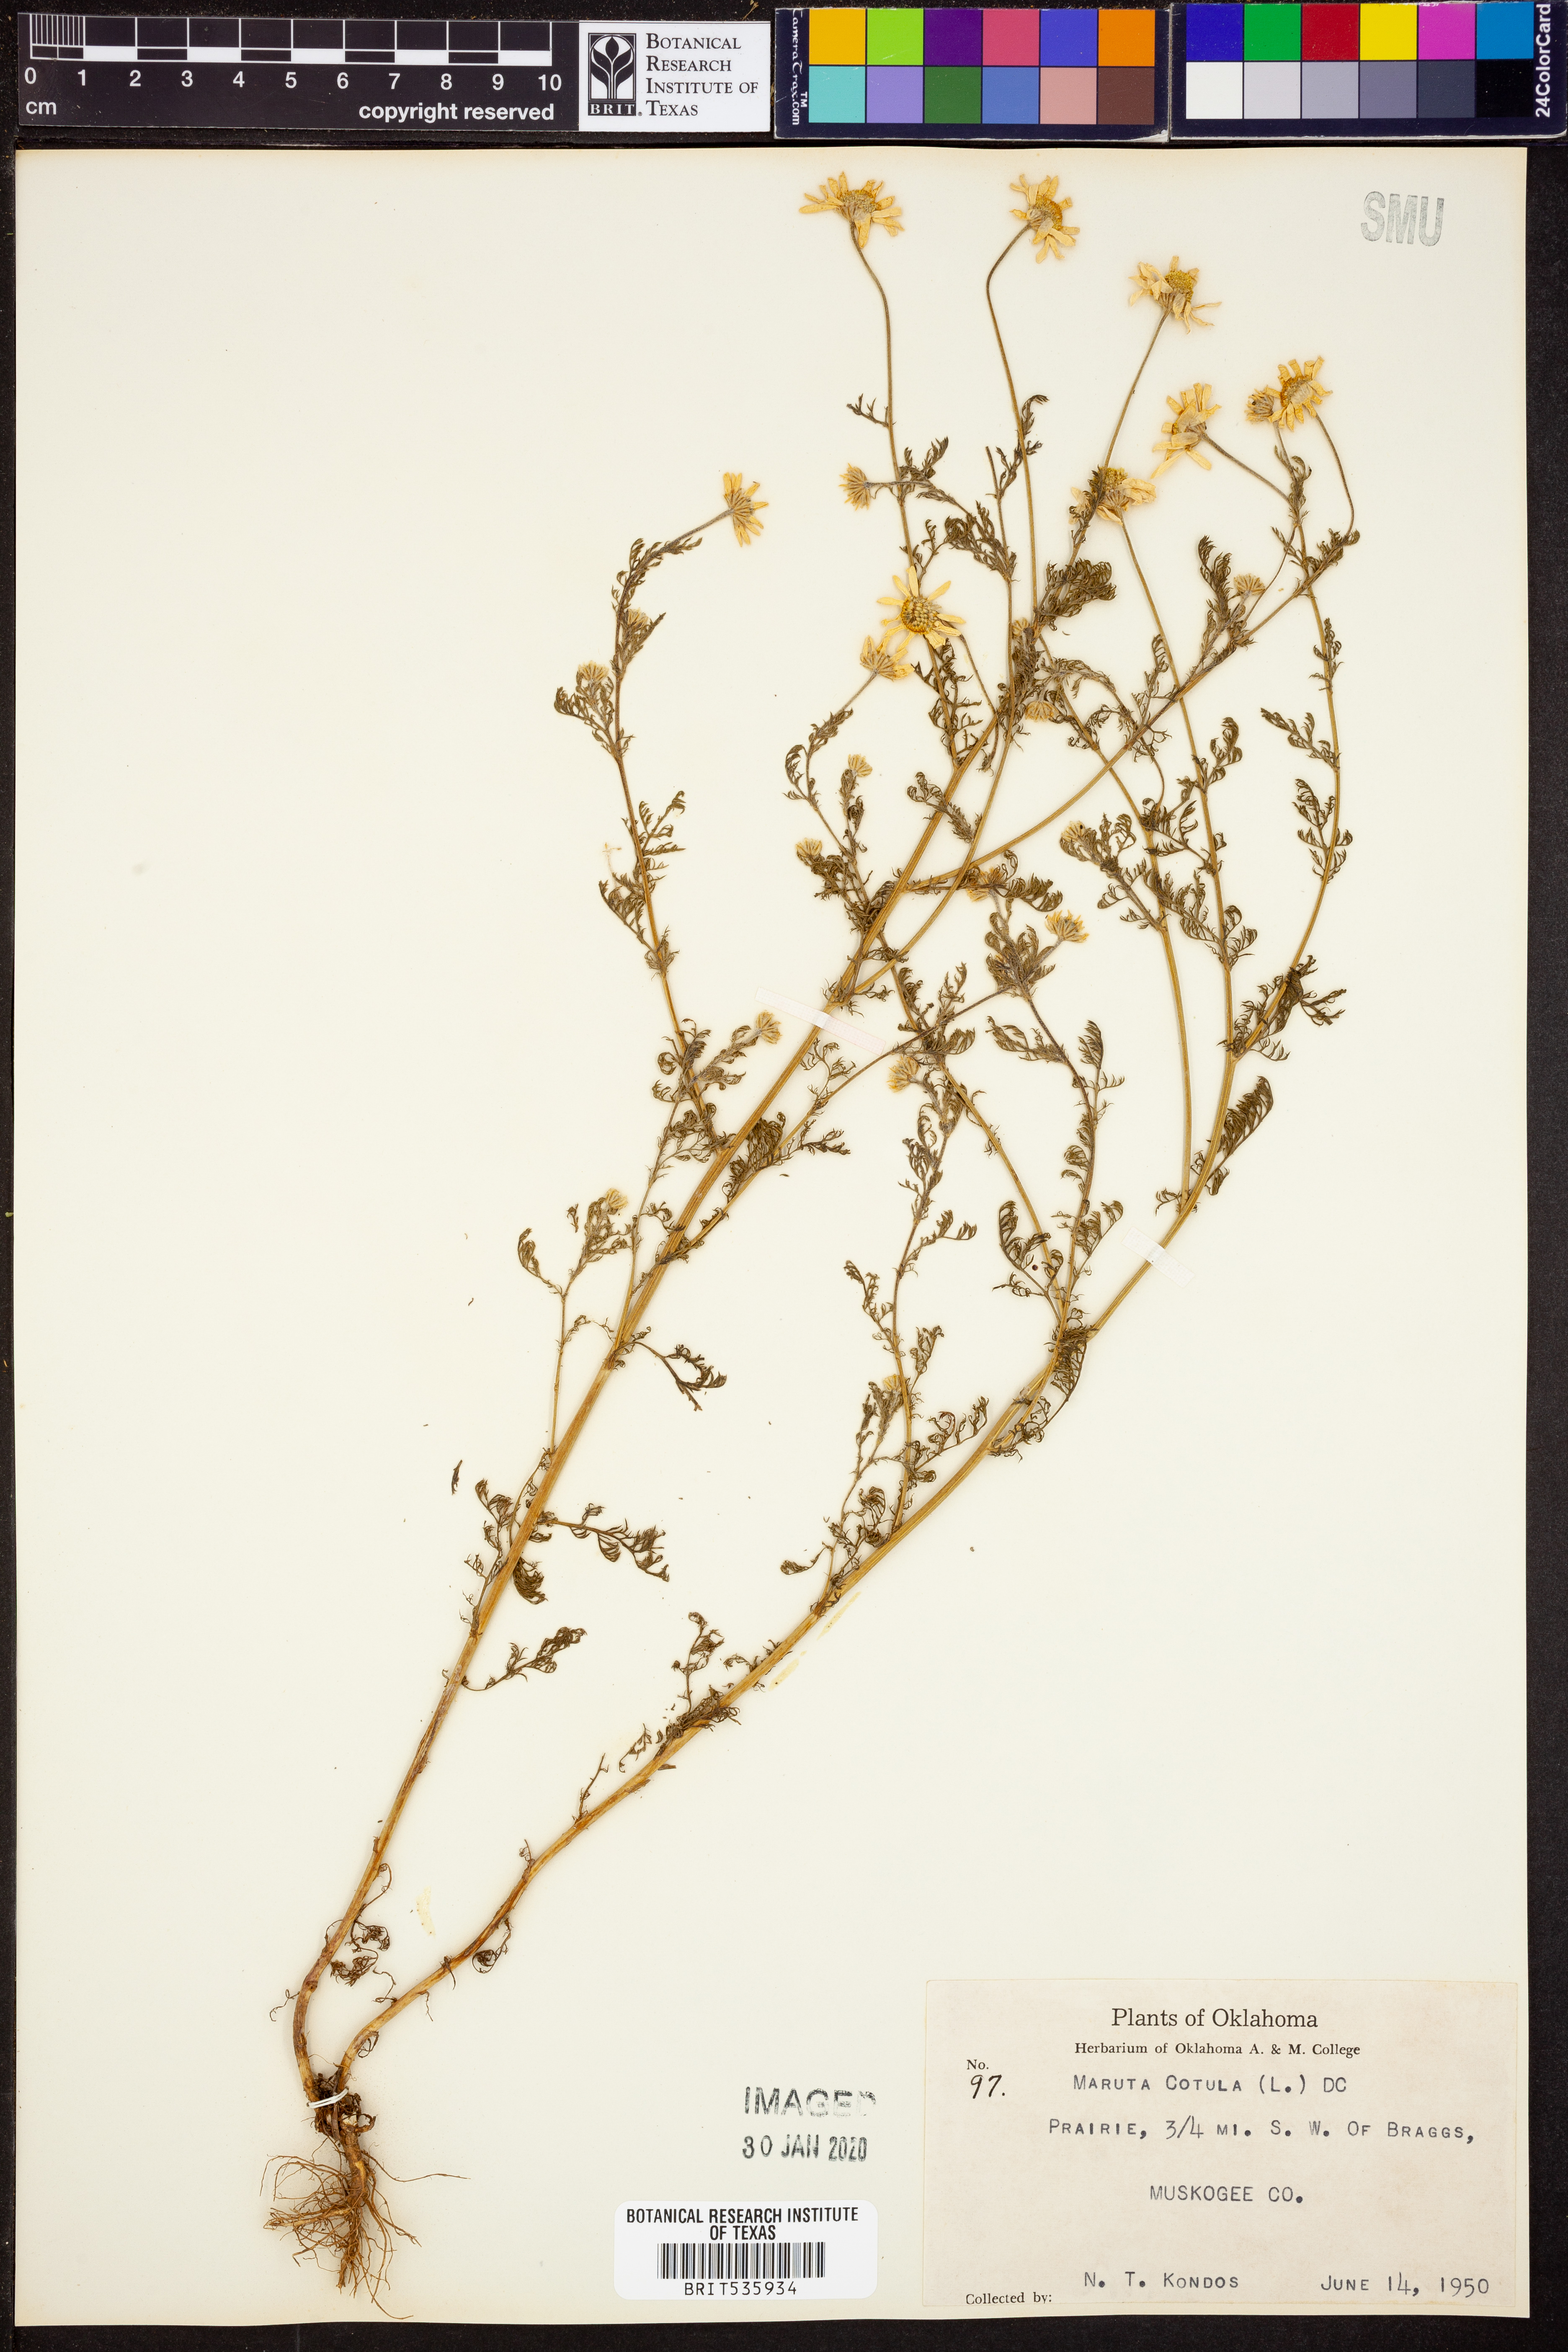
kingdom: Plantae
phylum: Tracheophyta
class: Magnoliopsida
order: Asterales
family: Asteraceae
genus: Anthemis
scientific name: Anthemis cotula
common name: Stinking chamomile
